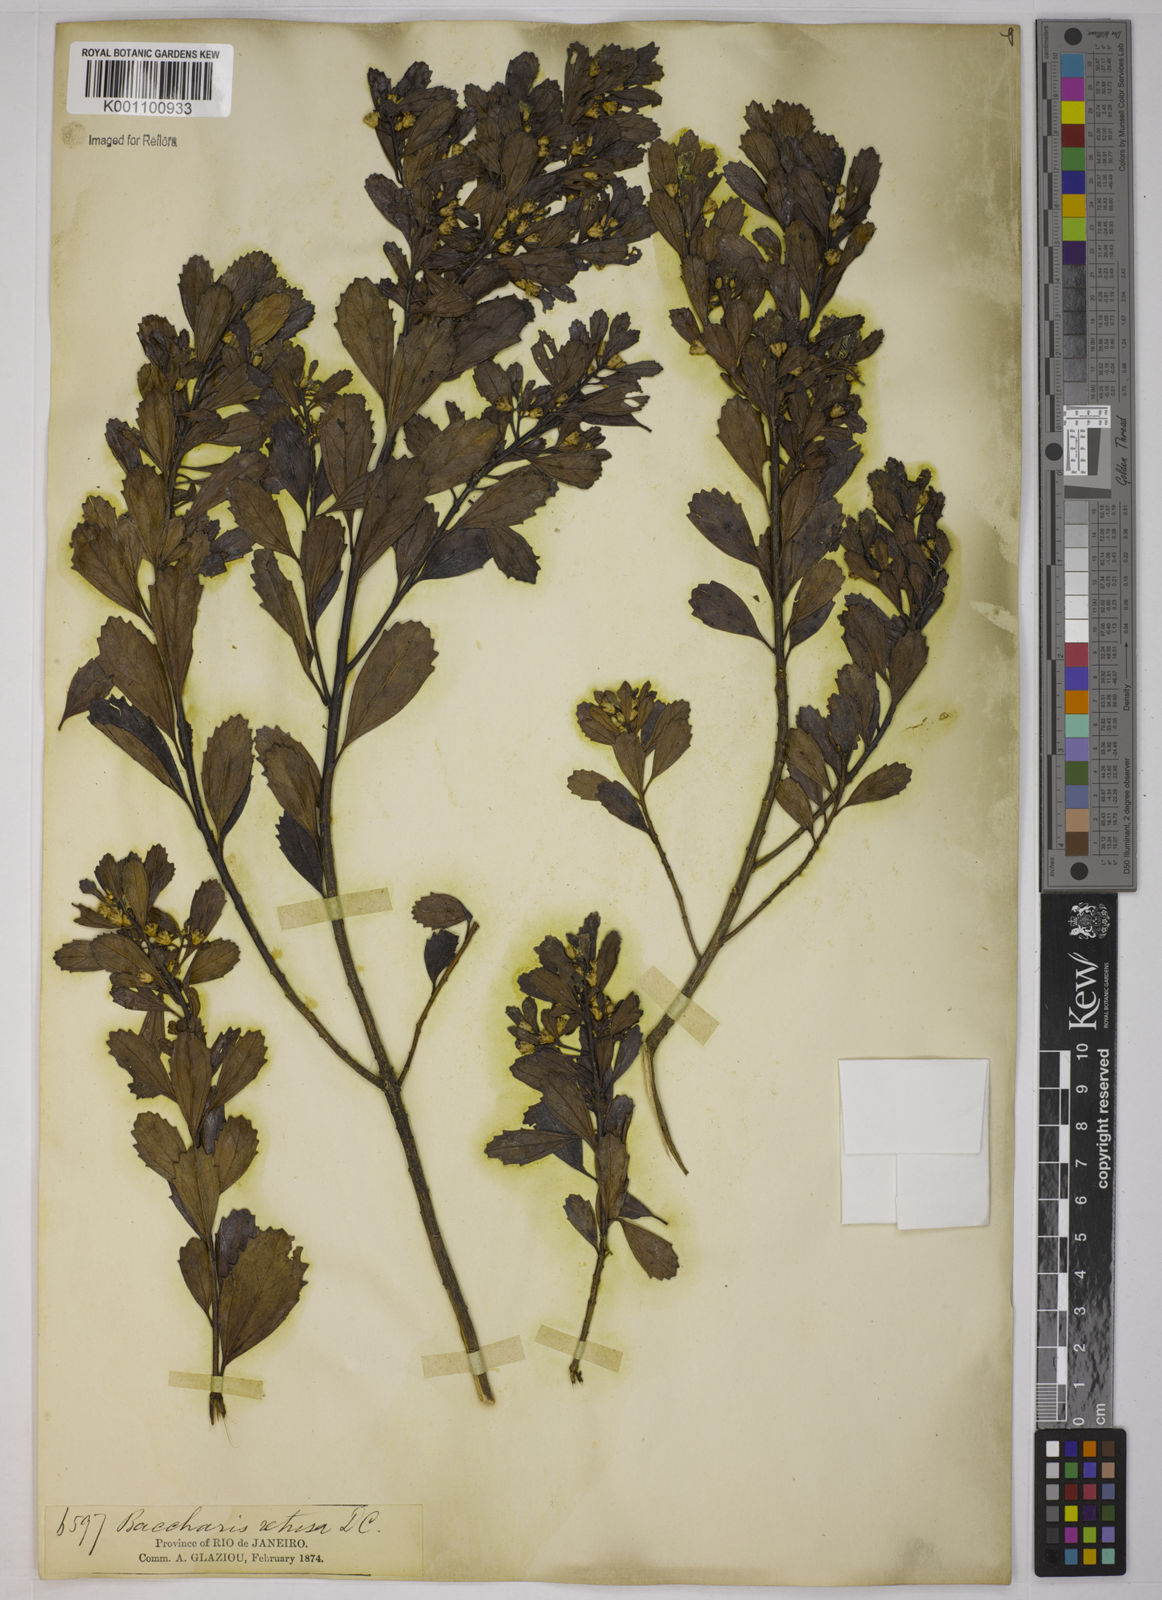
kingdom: Plantae
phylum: Tracheophyta
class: Magnoliopsida
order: Asterales
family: Asteraceae
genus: Baccharis
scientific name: Baccharis retusa
